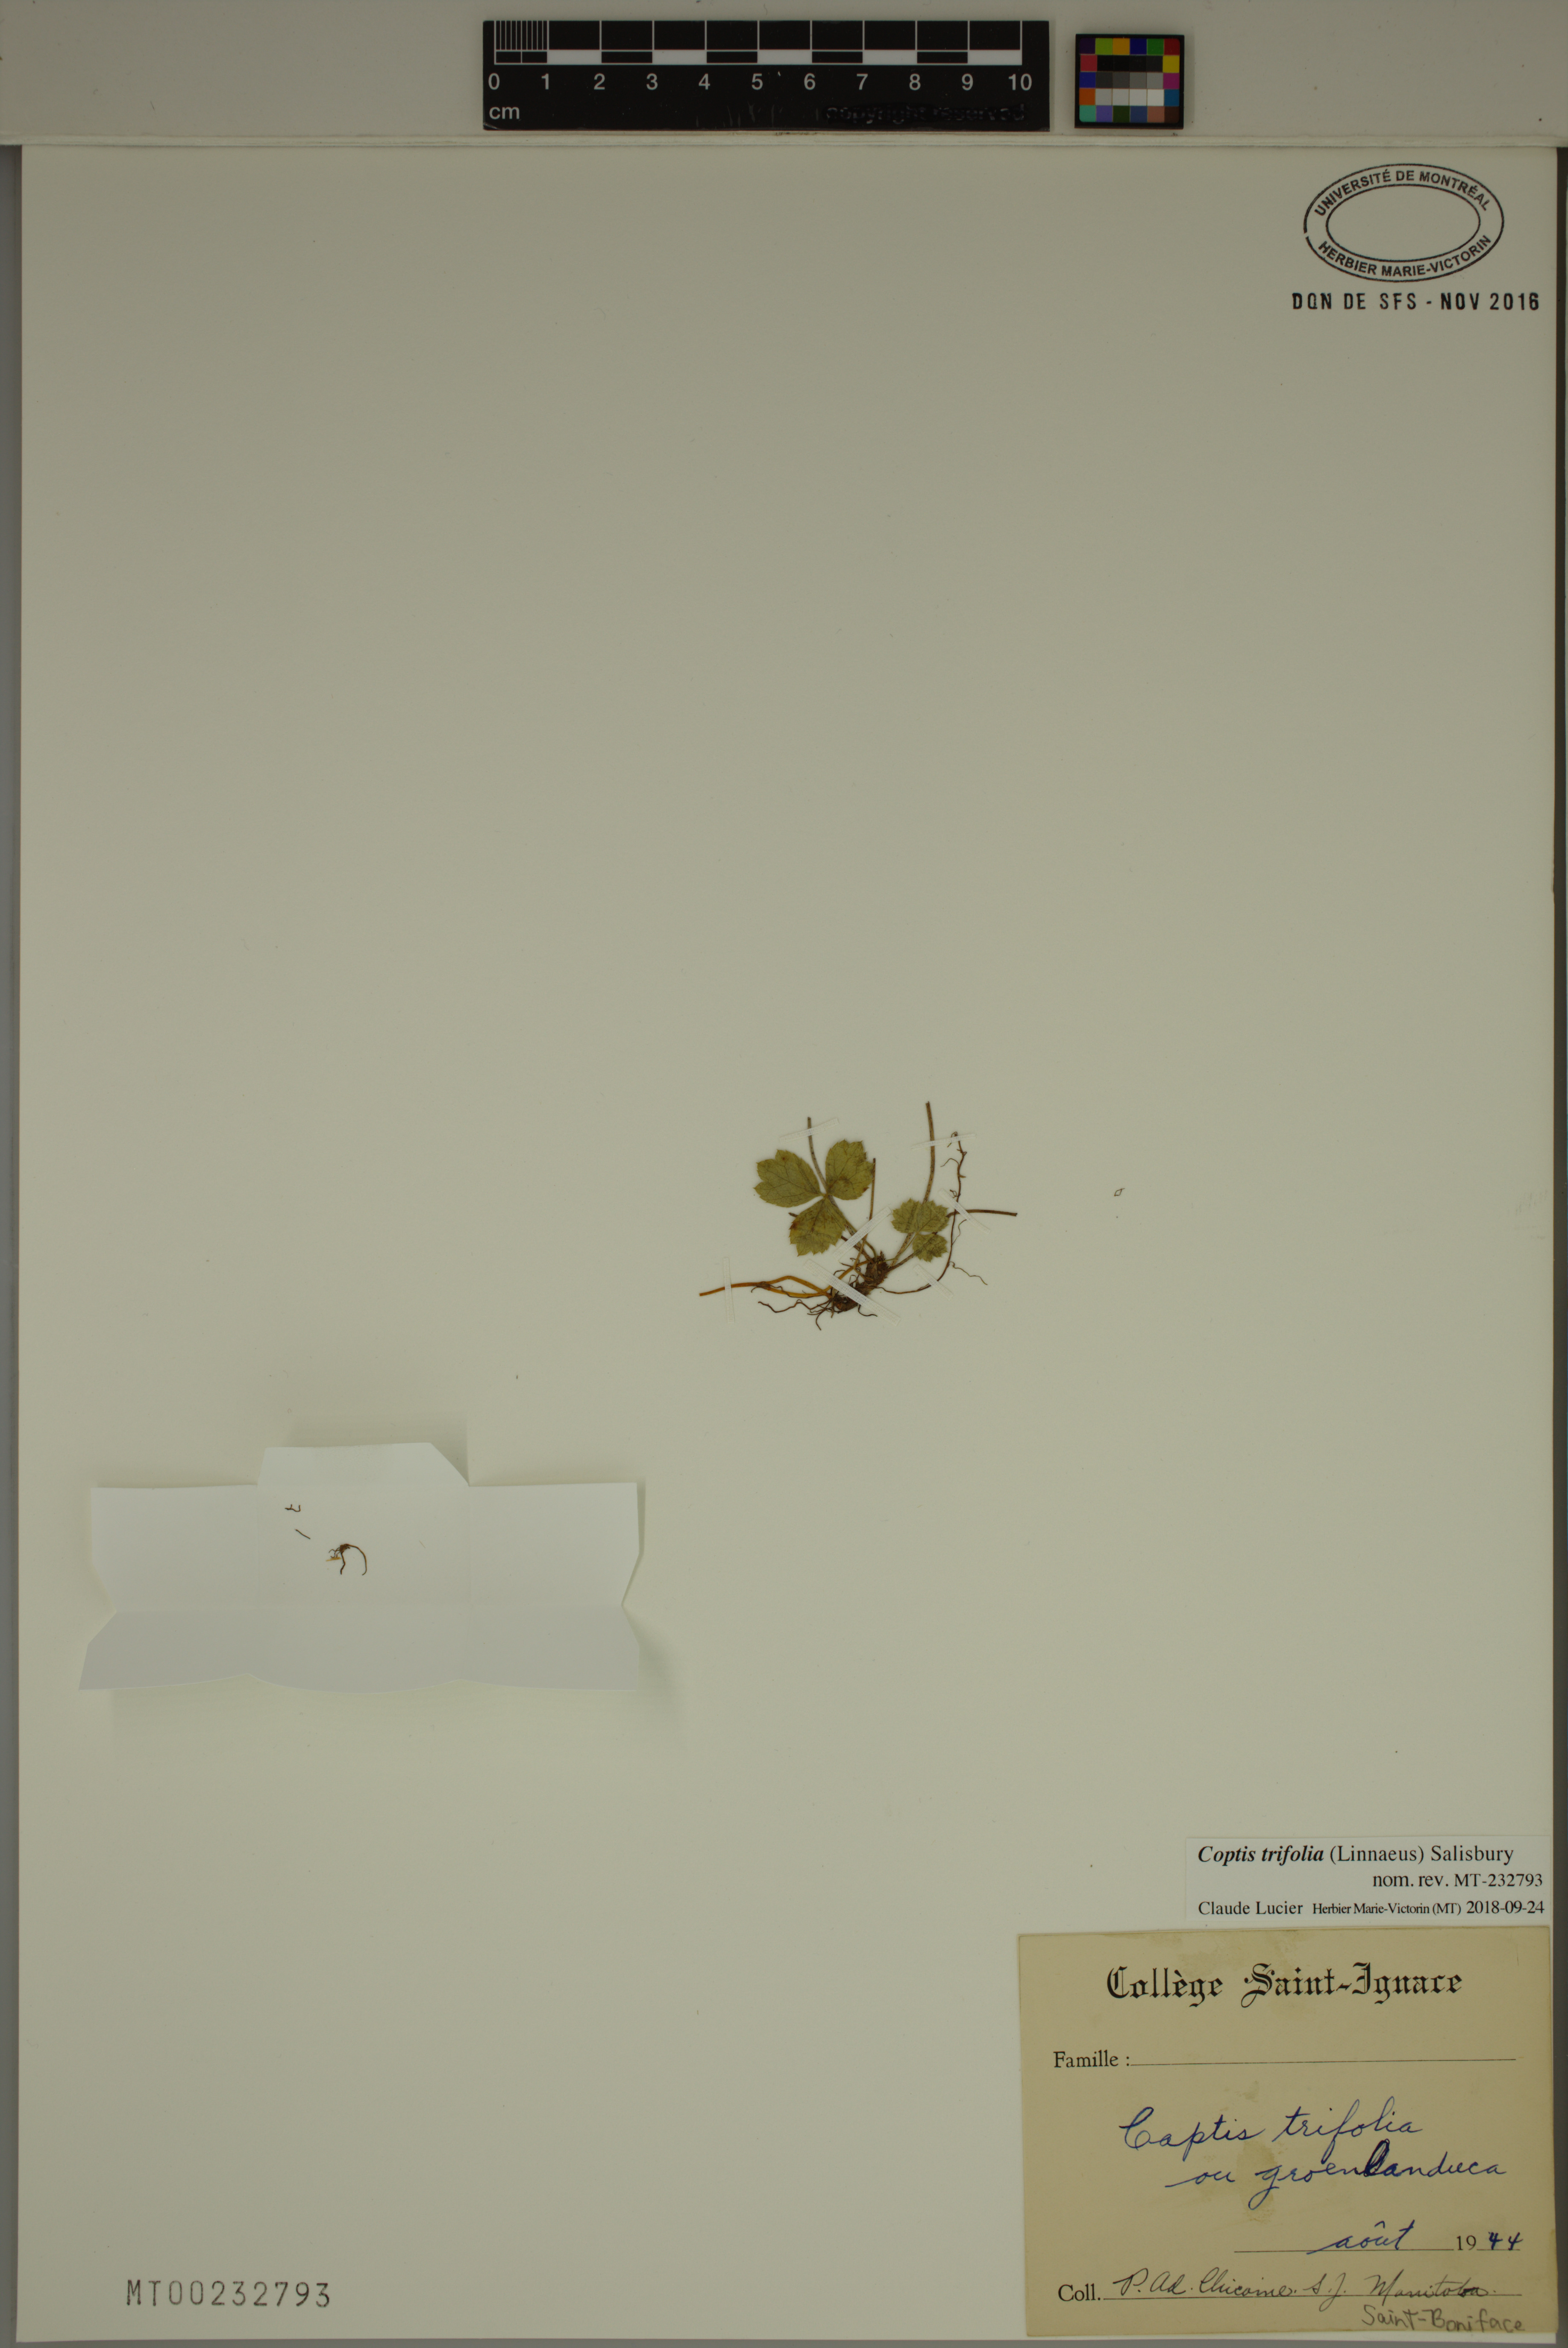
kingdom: Plantae
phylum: Tracheophyta
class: Magnoliopsida
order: Ranunculales
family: Ranunculaceae
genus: Coptis
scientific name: Coptis trifolia
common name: Canker-root
